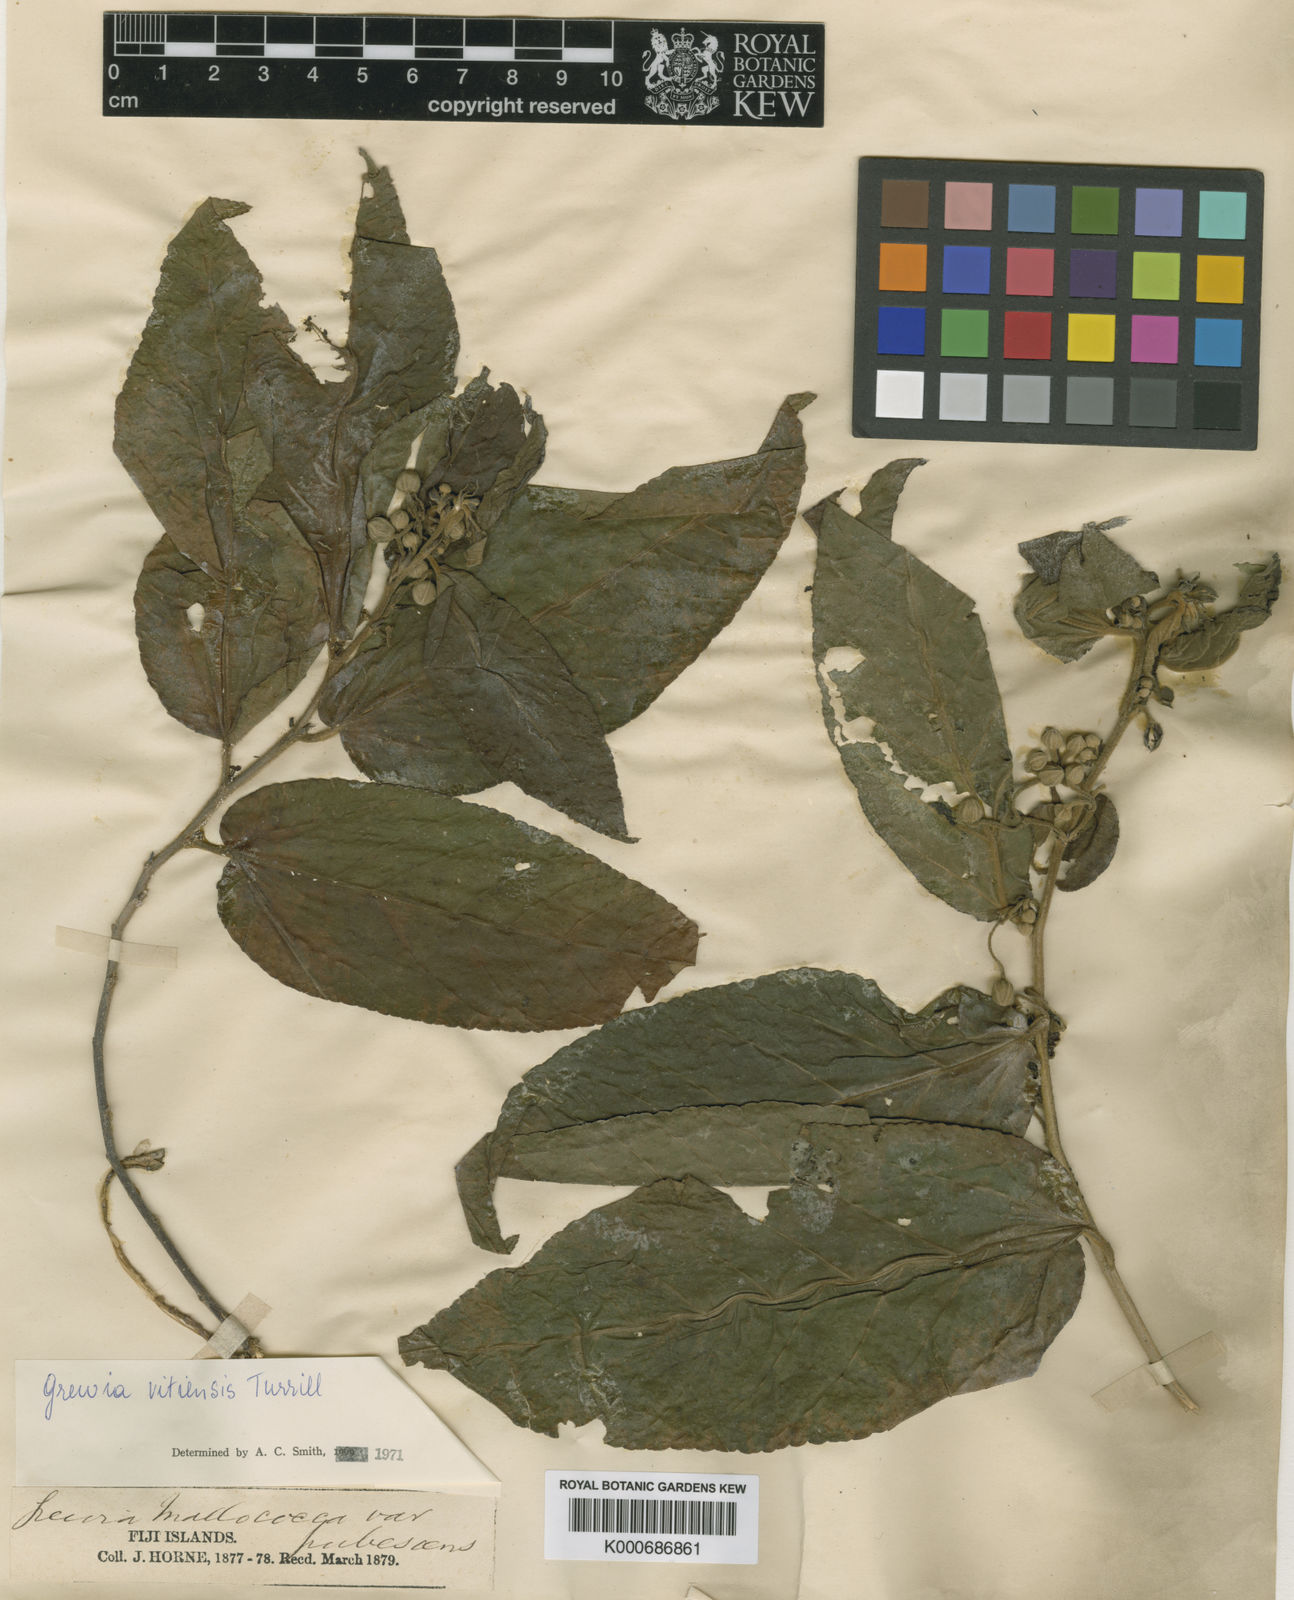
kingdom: Plantae
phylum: Tracheophyta
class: Magnoliopsida
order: Malvales
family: Malvaceae
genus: Grewia
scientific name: Grewia vitiensis
